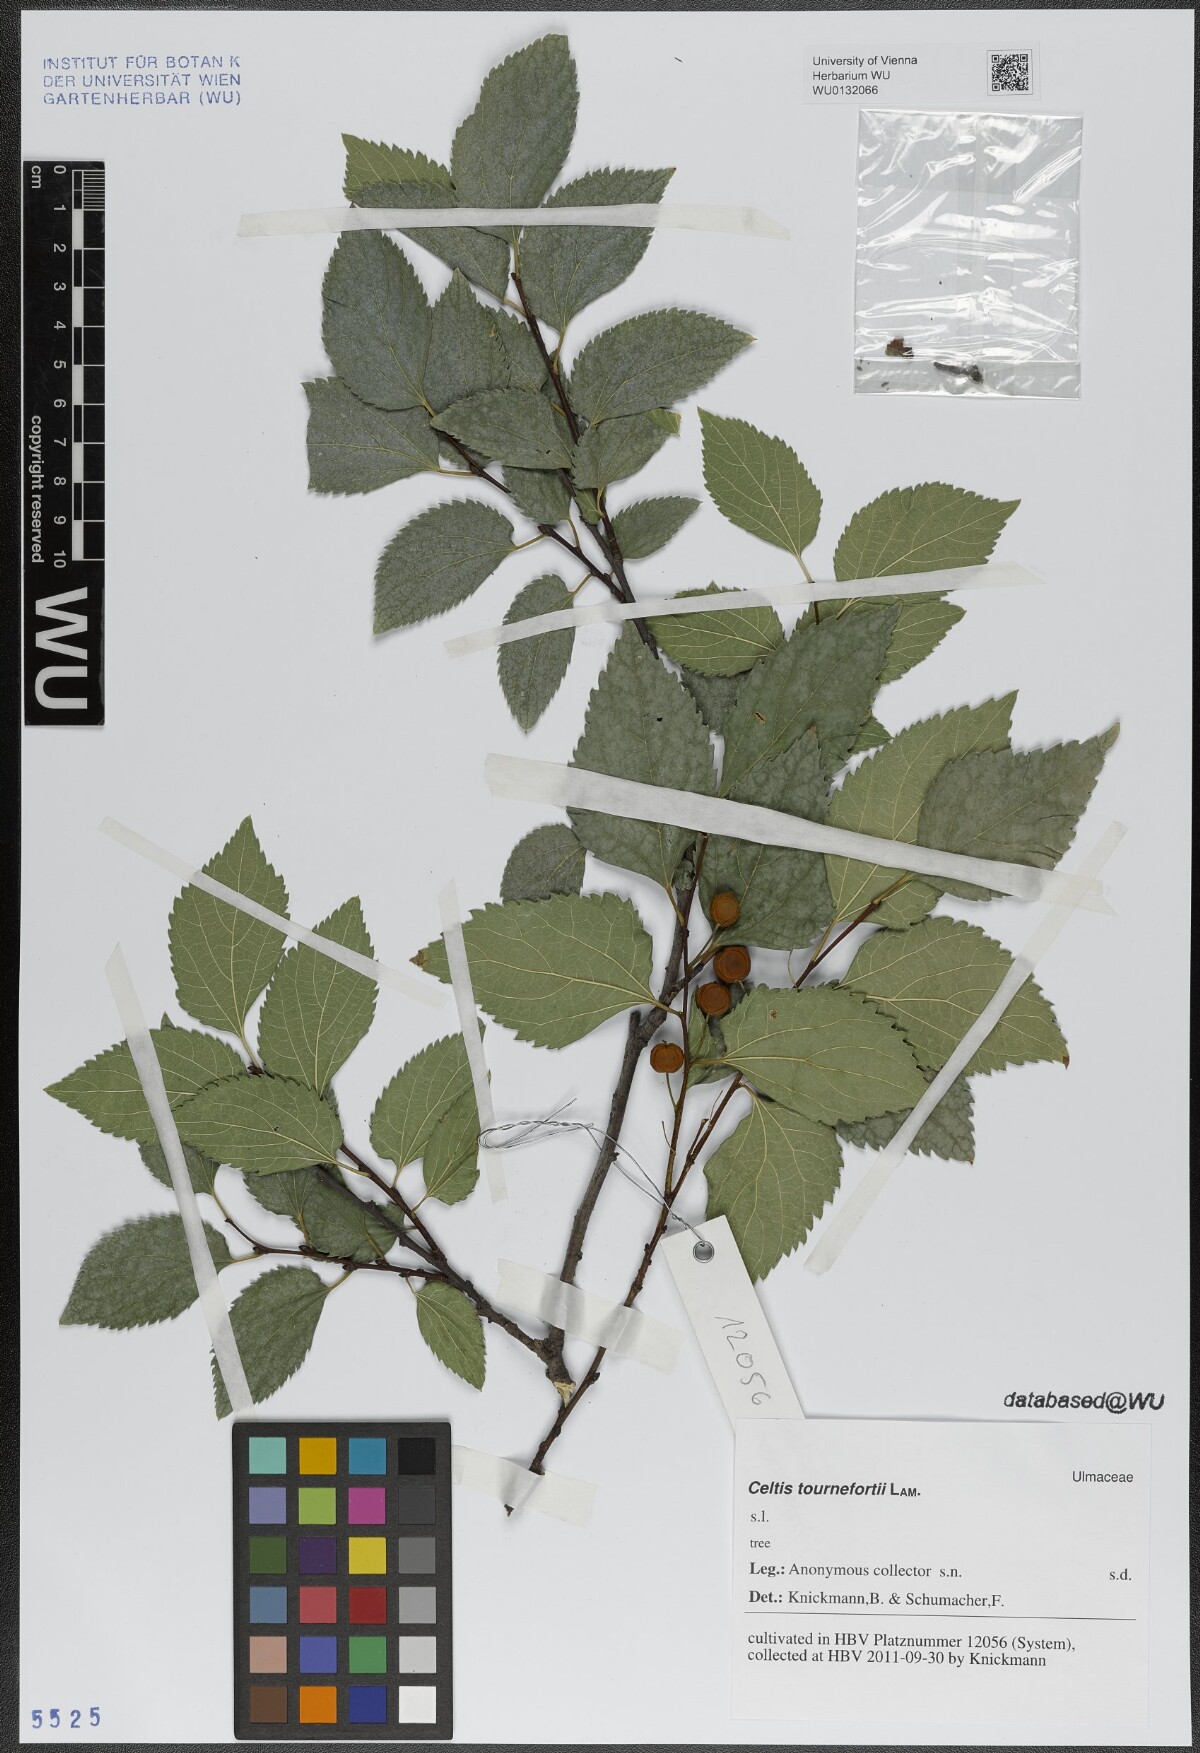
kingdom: Plantae
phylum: Tracheophyta
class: Magnoliopsida
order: Rosales
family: Cannabaceae
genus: Celtis
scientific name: Celtis tournefortii
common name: Oriental hackberry
